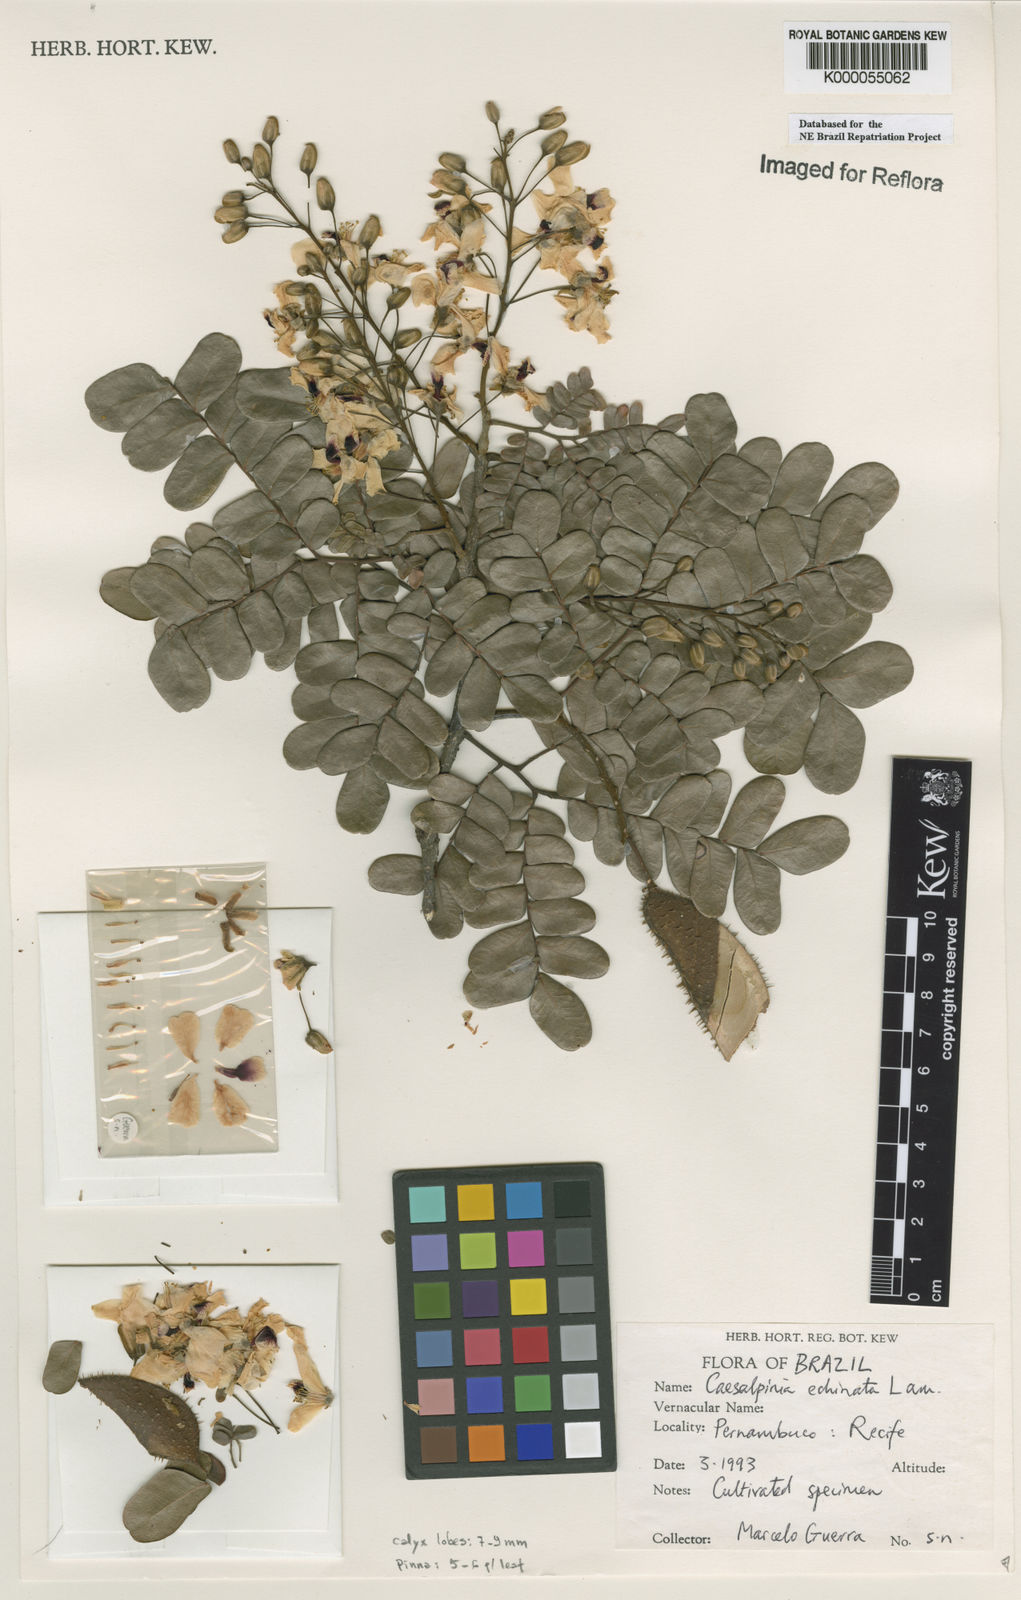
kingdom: Plantae
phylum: Tracheophyta
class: Magnoliopsida
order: Fabales
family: Fabaceae
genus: Paubrasilia
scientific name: Paubrasilia echinata
